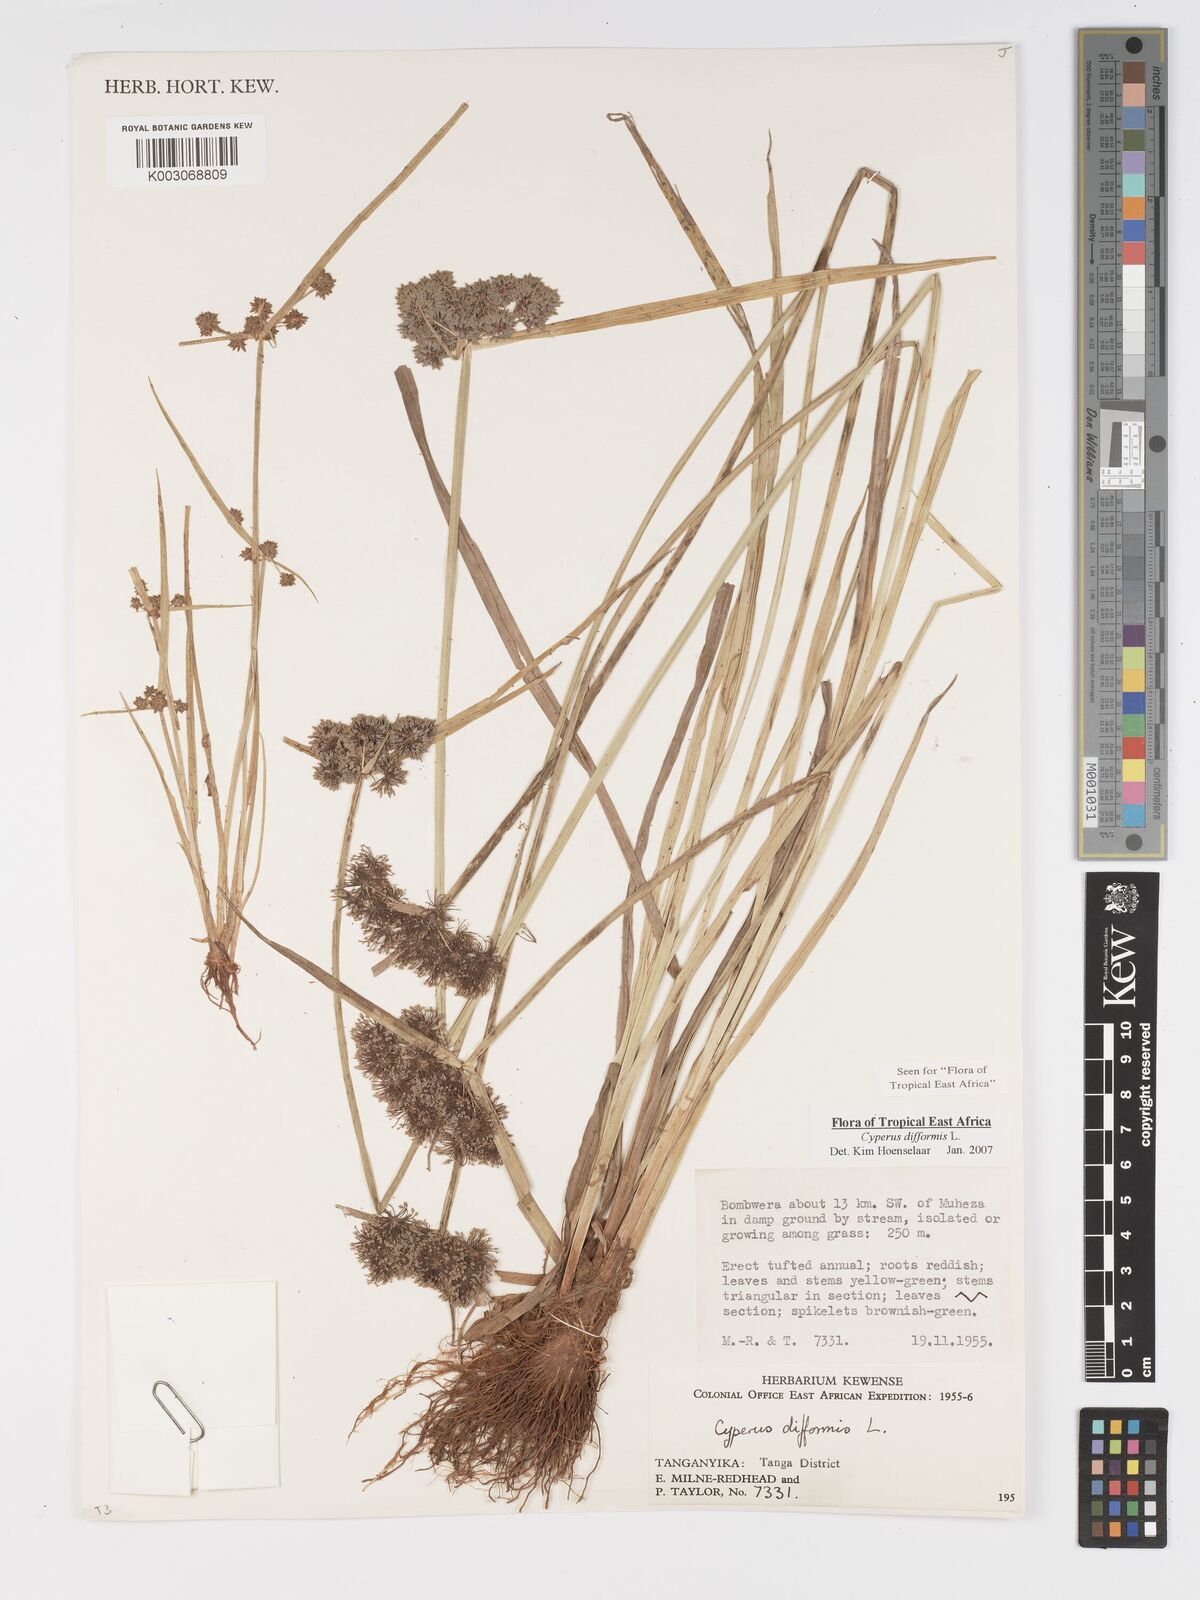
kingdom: Plantae
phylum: Tracheophyta
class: Liliopsida
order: Poales
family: Cyperaceae
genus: Cyperus
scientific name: Cyperus difformis
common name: Variable flatsedge
